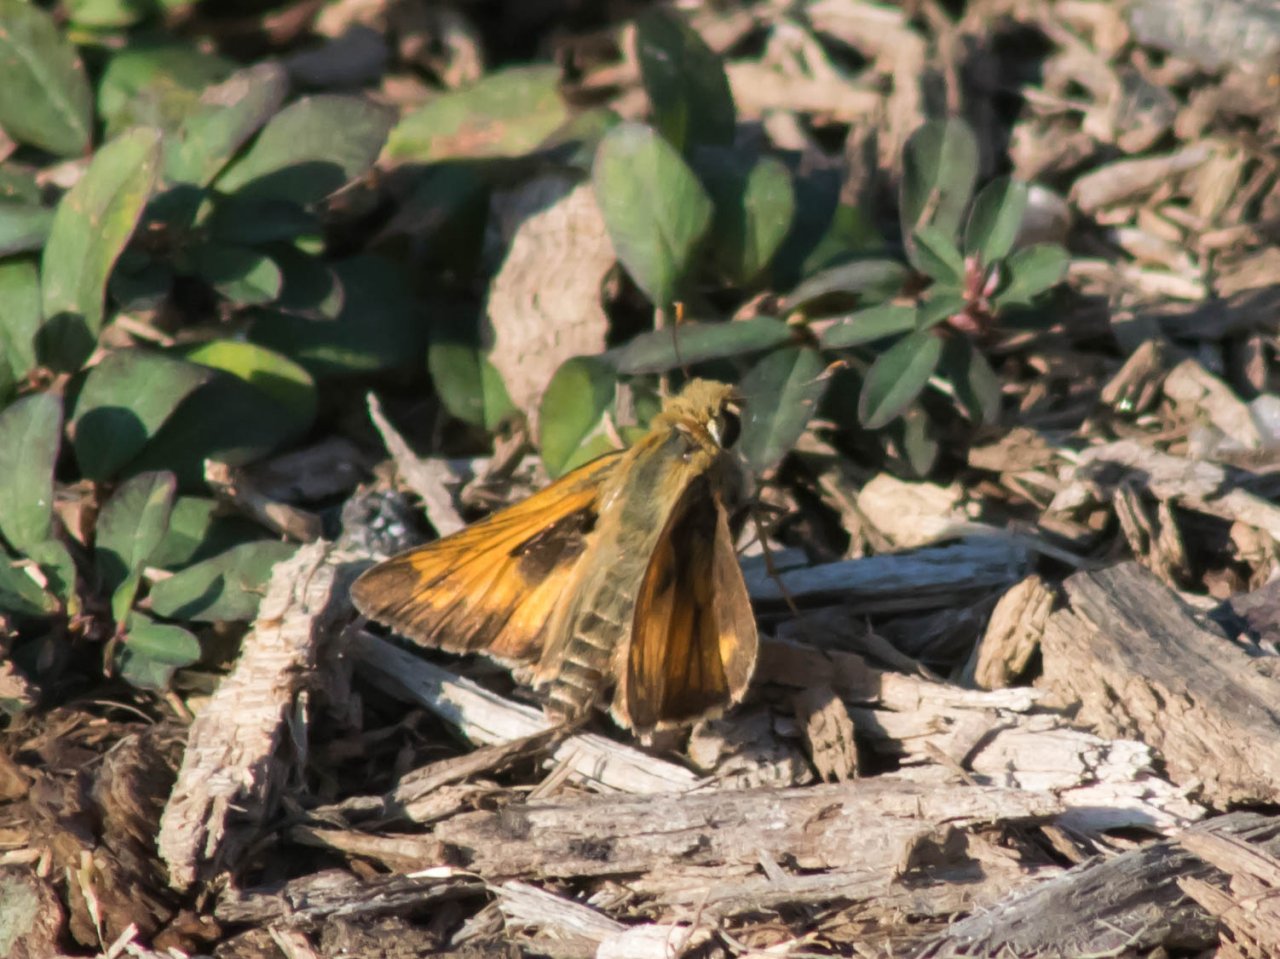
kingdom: Animalia
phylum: Arthropoda
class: Insecta
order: Lepidoptera
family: Hesperiidae
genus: Atalopedes
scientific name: Atalopedes campestris
